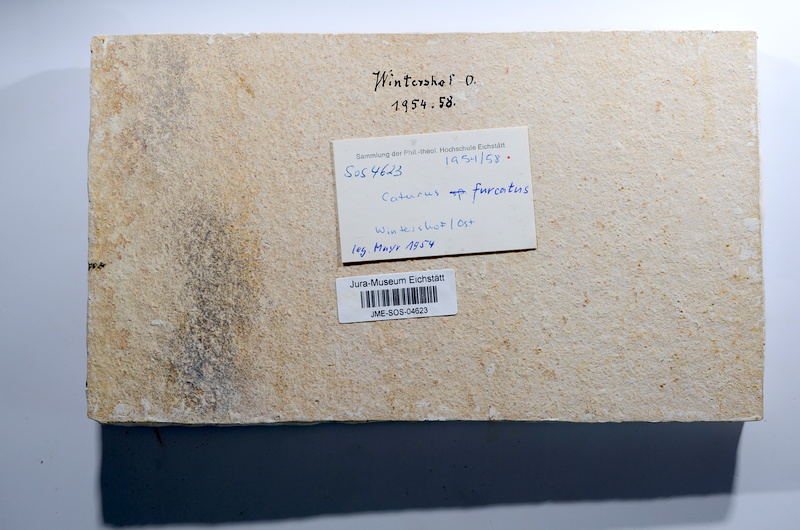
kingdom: Animalia
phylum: Chordata
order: Amiiformes
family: Caturidae
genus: Caturus
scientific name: Caturus furcatus
